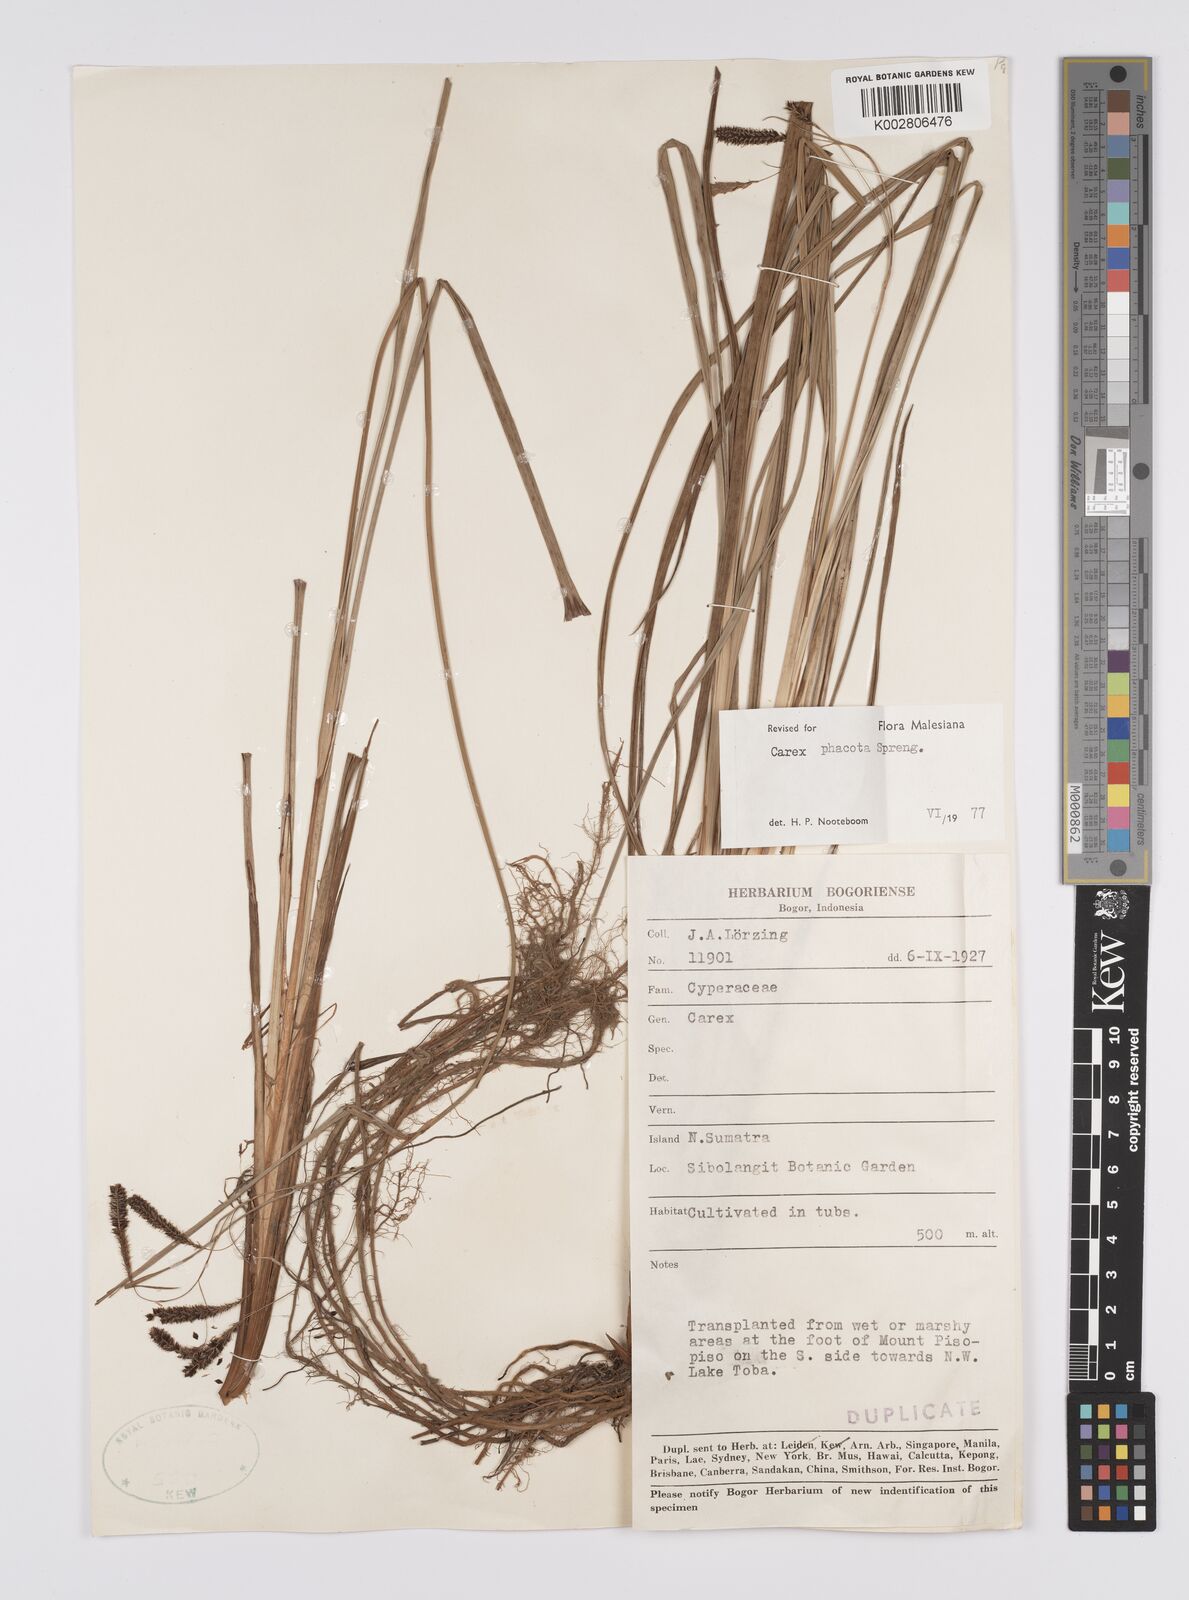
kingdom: Plantae
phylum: Tracheophyta
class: Liliopsida
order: Poales
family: Cyperaceae
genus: Carex
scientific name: Carex phacota
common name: Lakeshore sedge
